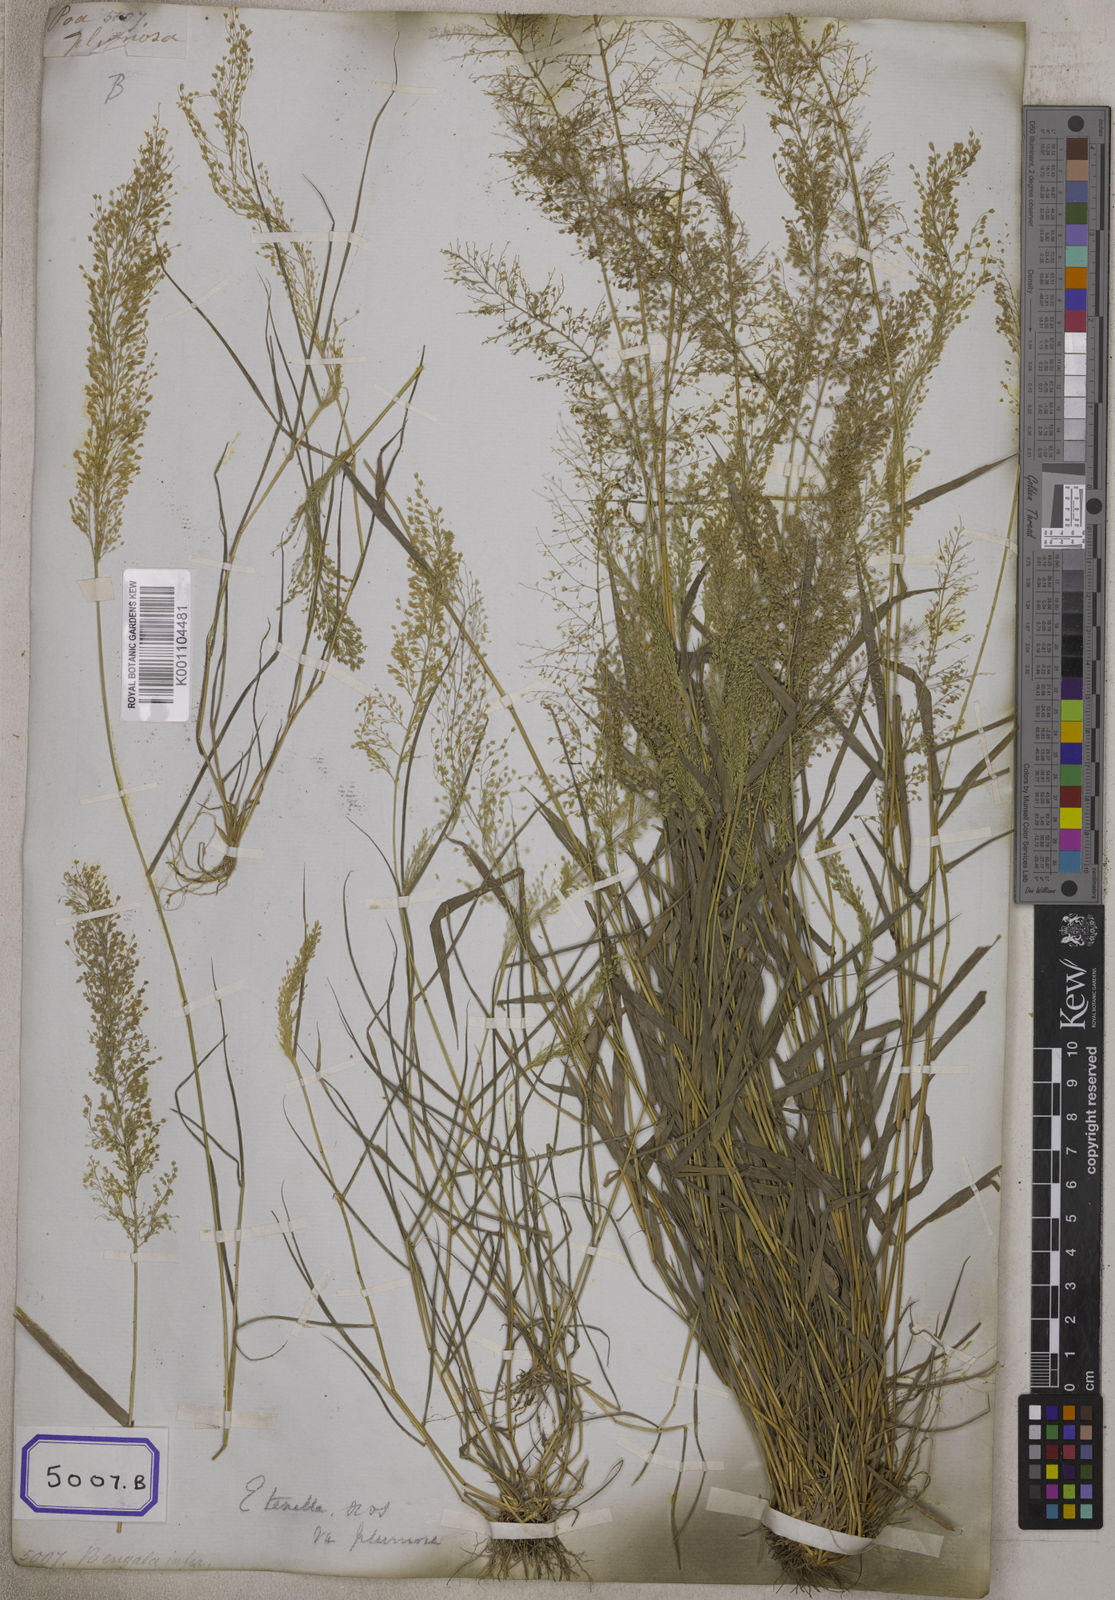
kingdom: Plantae
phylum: Tracheophyta
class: Liliopsida
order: Poales
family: Poaceae
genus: Eragrostis
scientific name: Eragrostis
